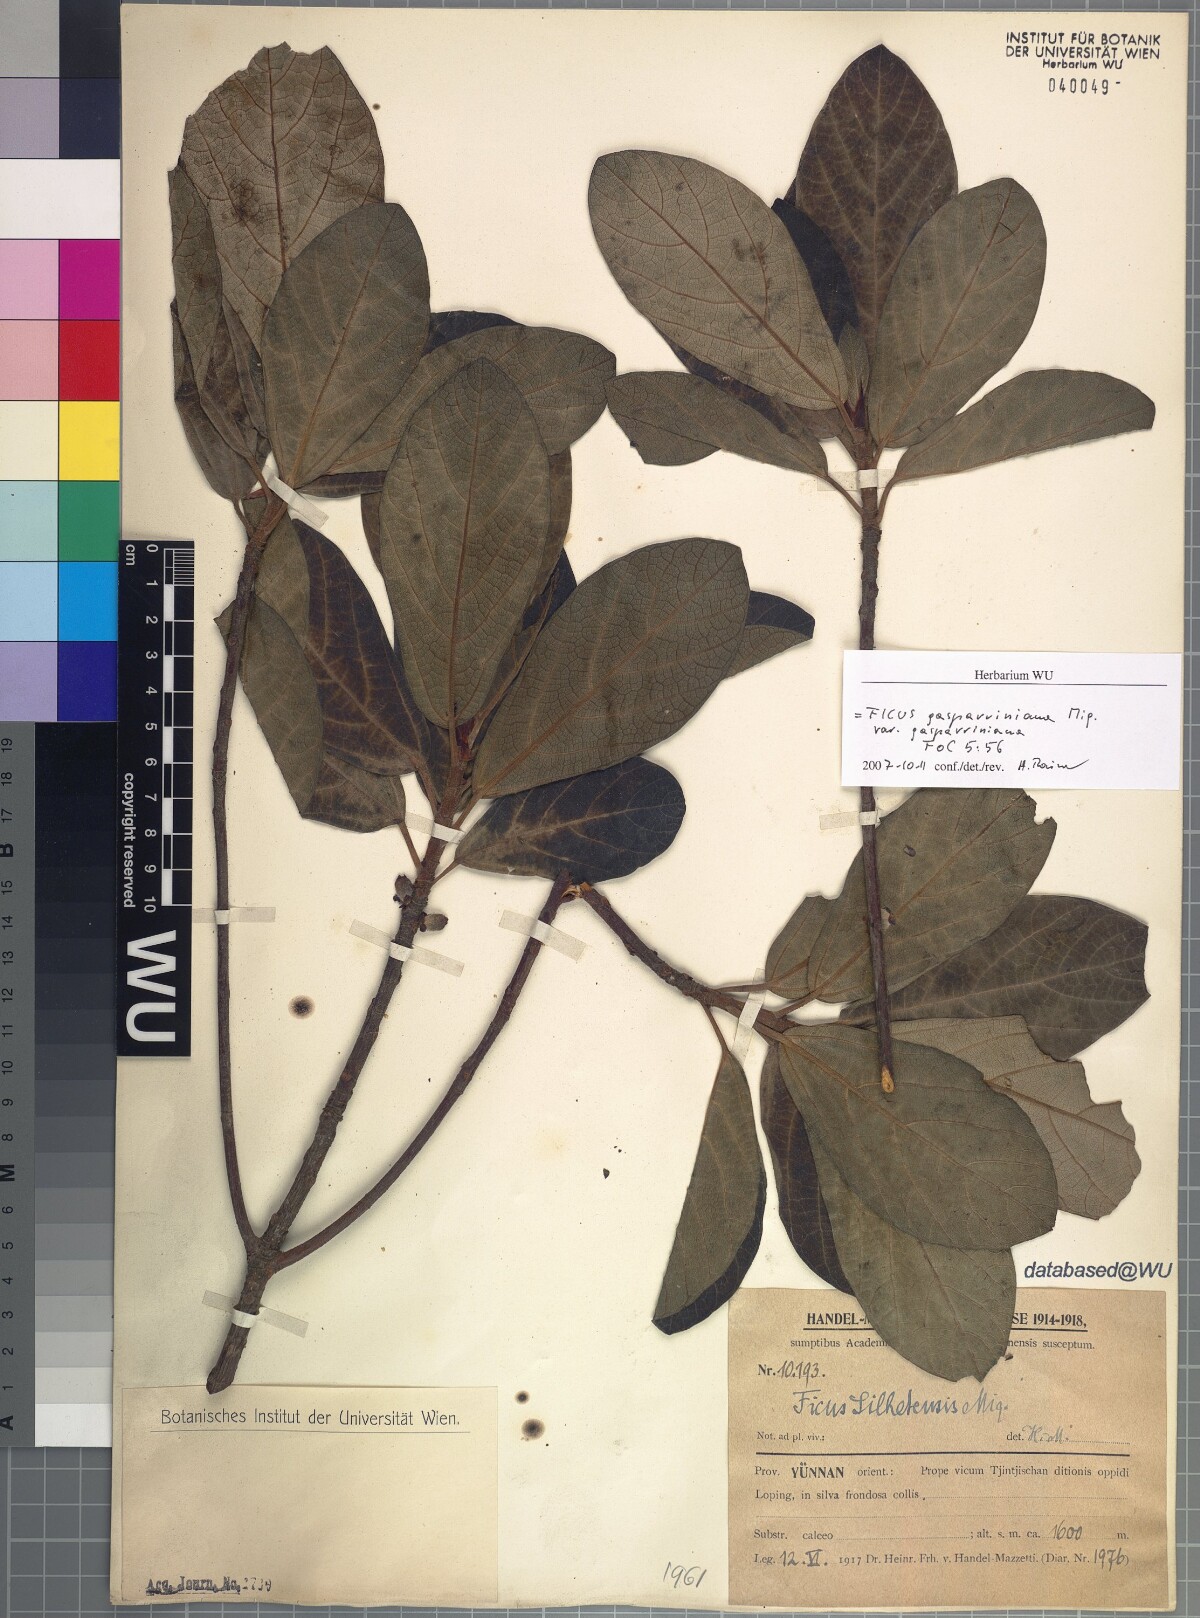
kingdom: Plantae
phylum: Tracheophyta
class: Magnoliopsida
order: Rosales
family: Moraceae
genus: Ficus
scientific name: Ficus neriifolia
